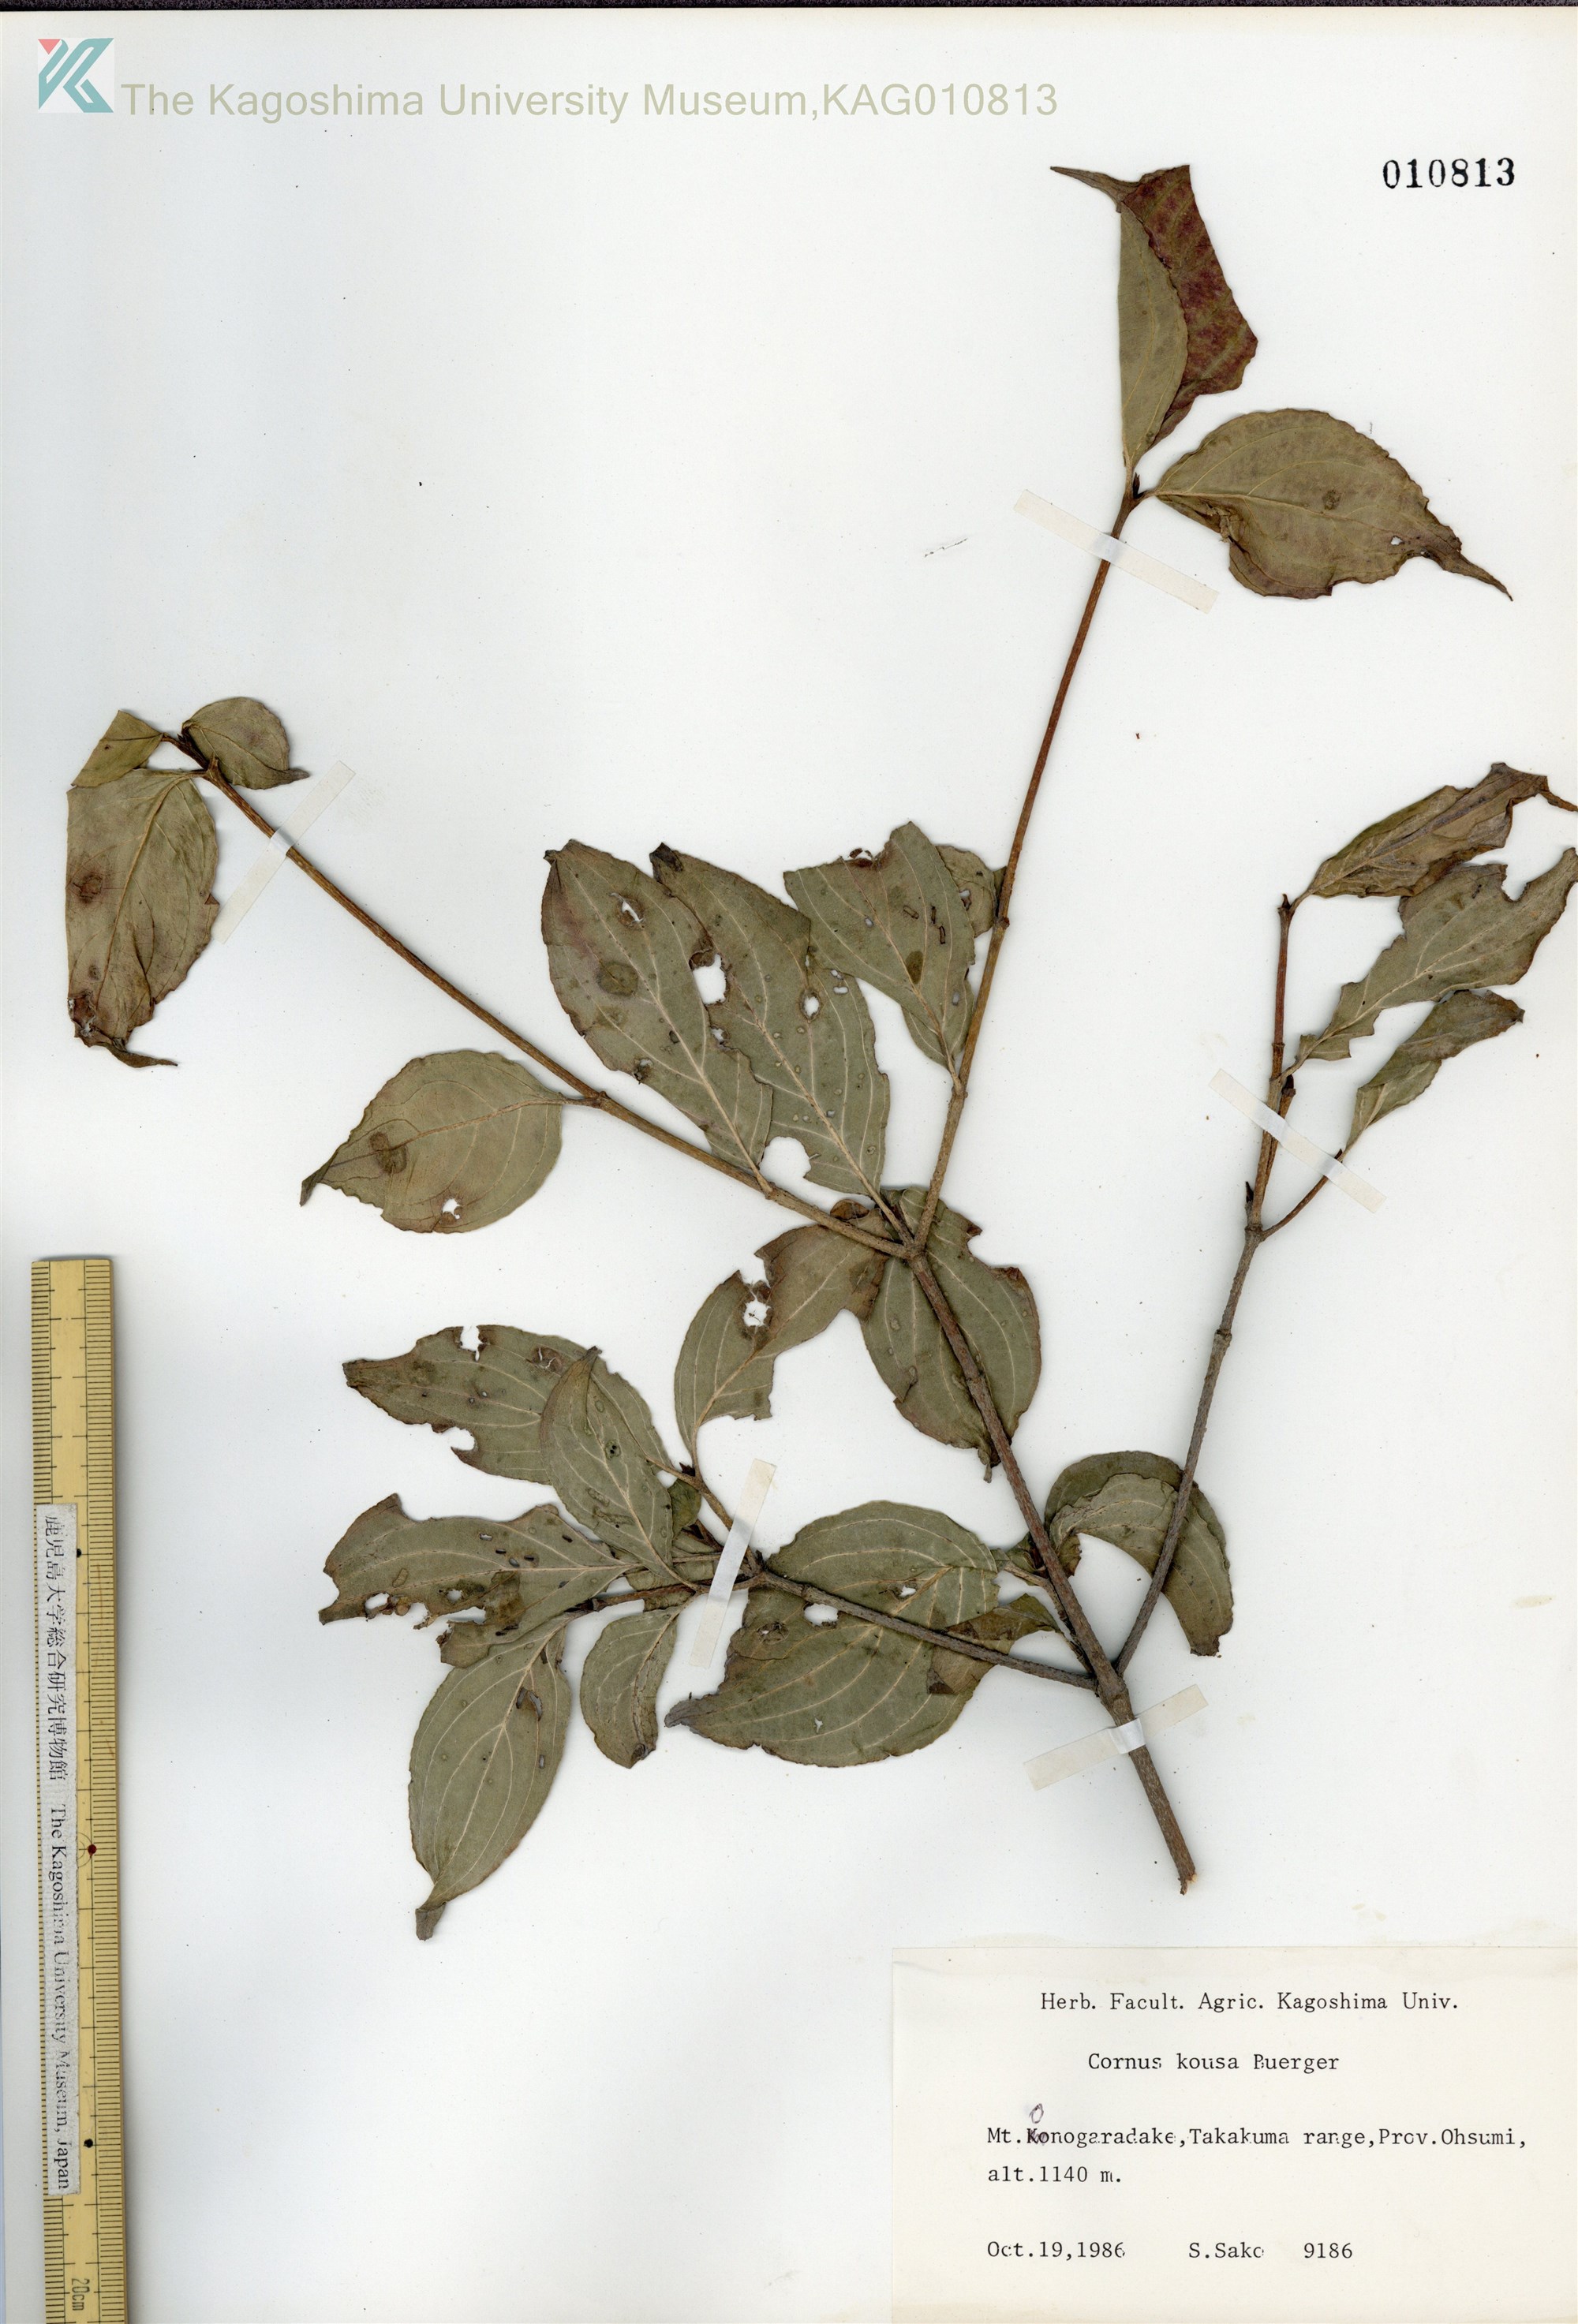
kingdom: Plantae
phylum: Tracheophyta
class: Magnoliopsida
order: Cornales
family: Cornaceae
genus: Cornus
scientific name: Cornus kousa
